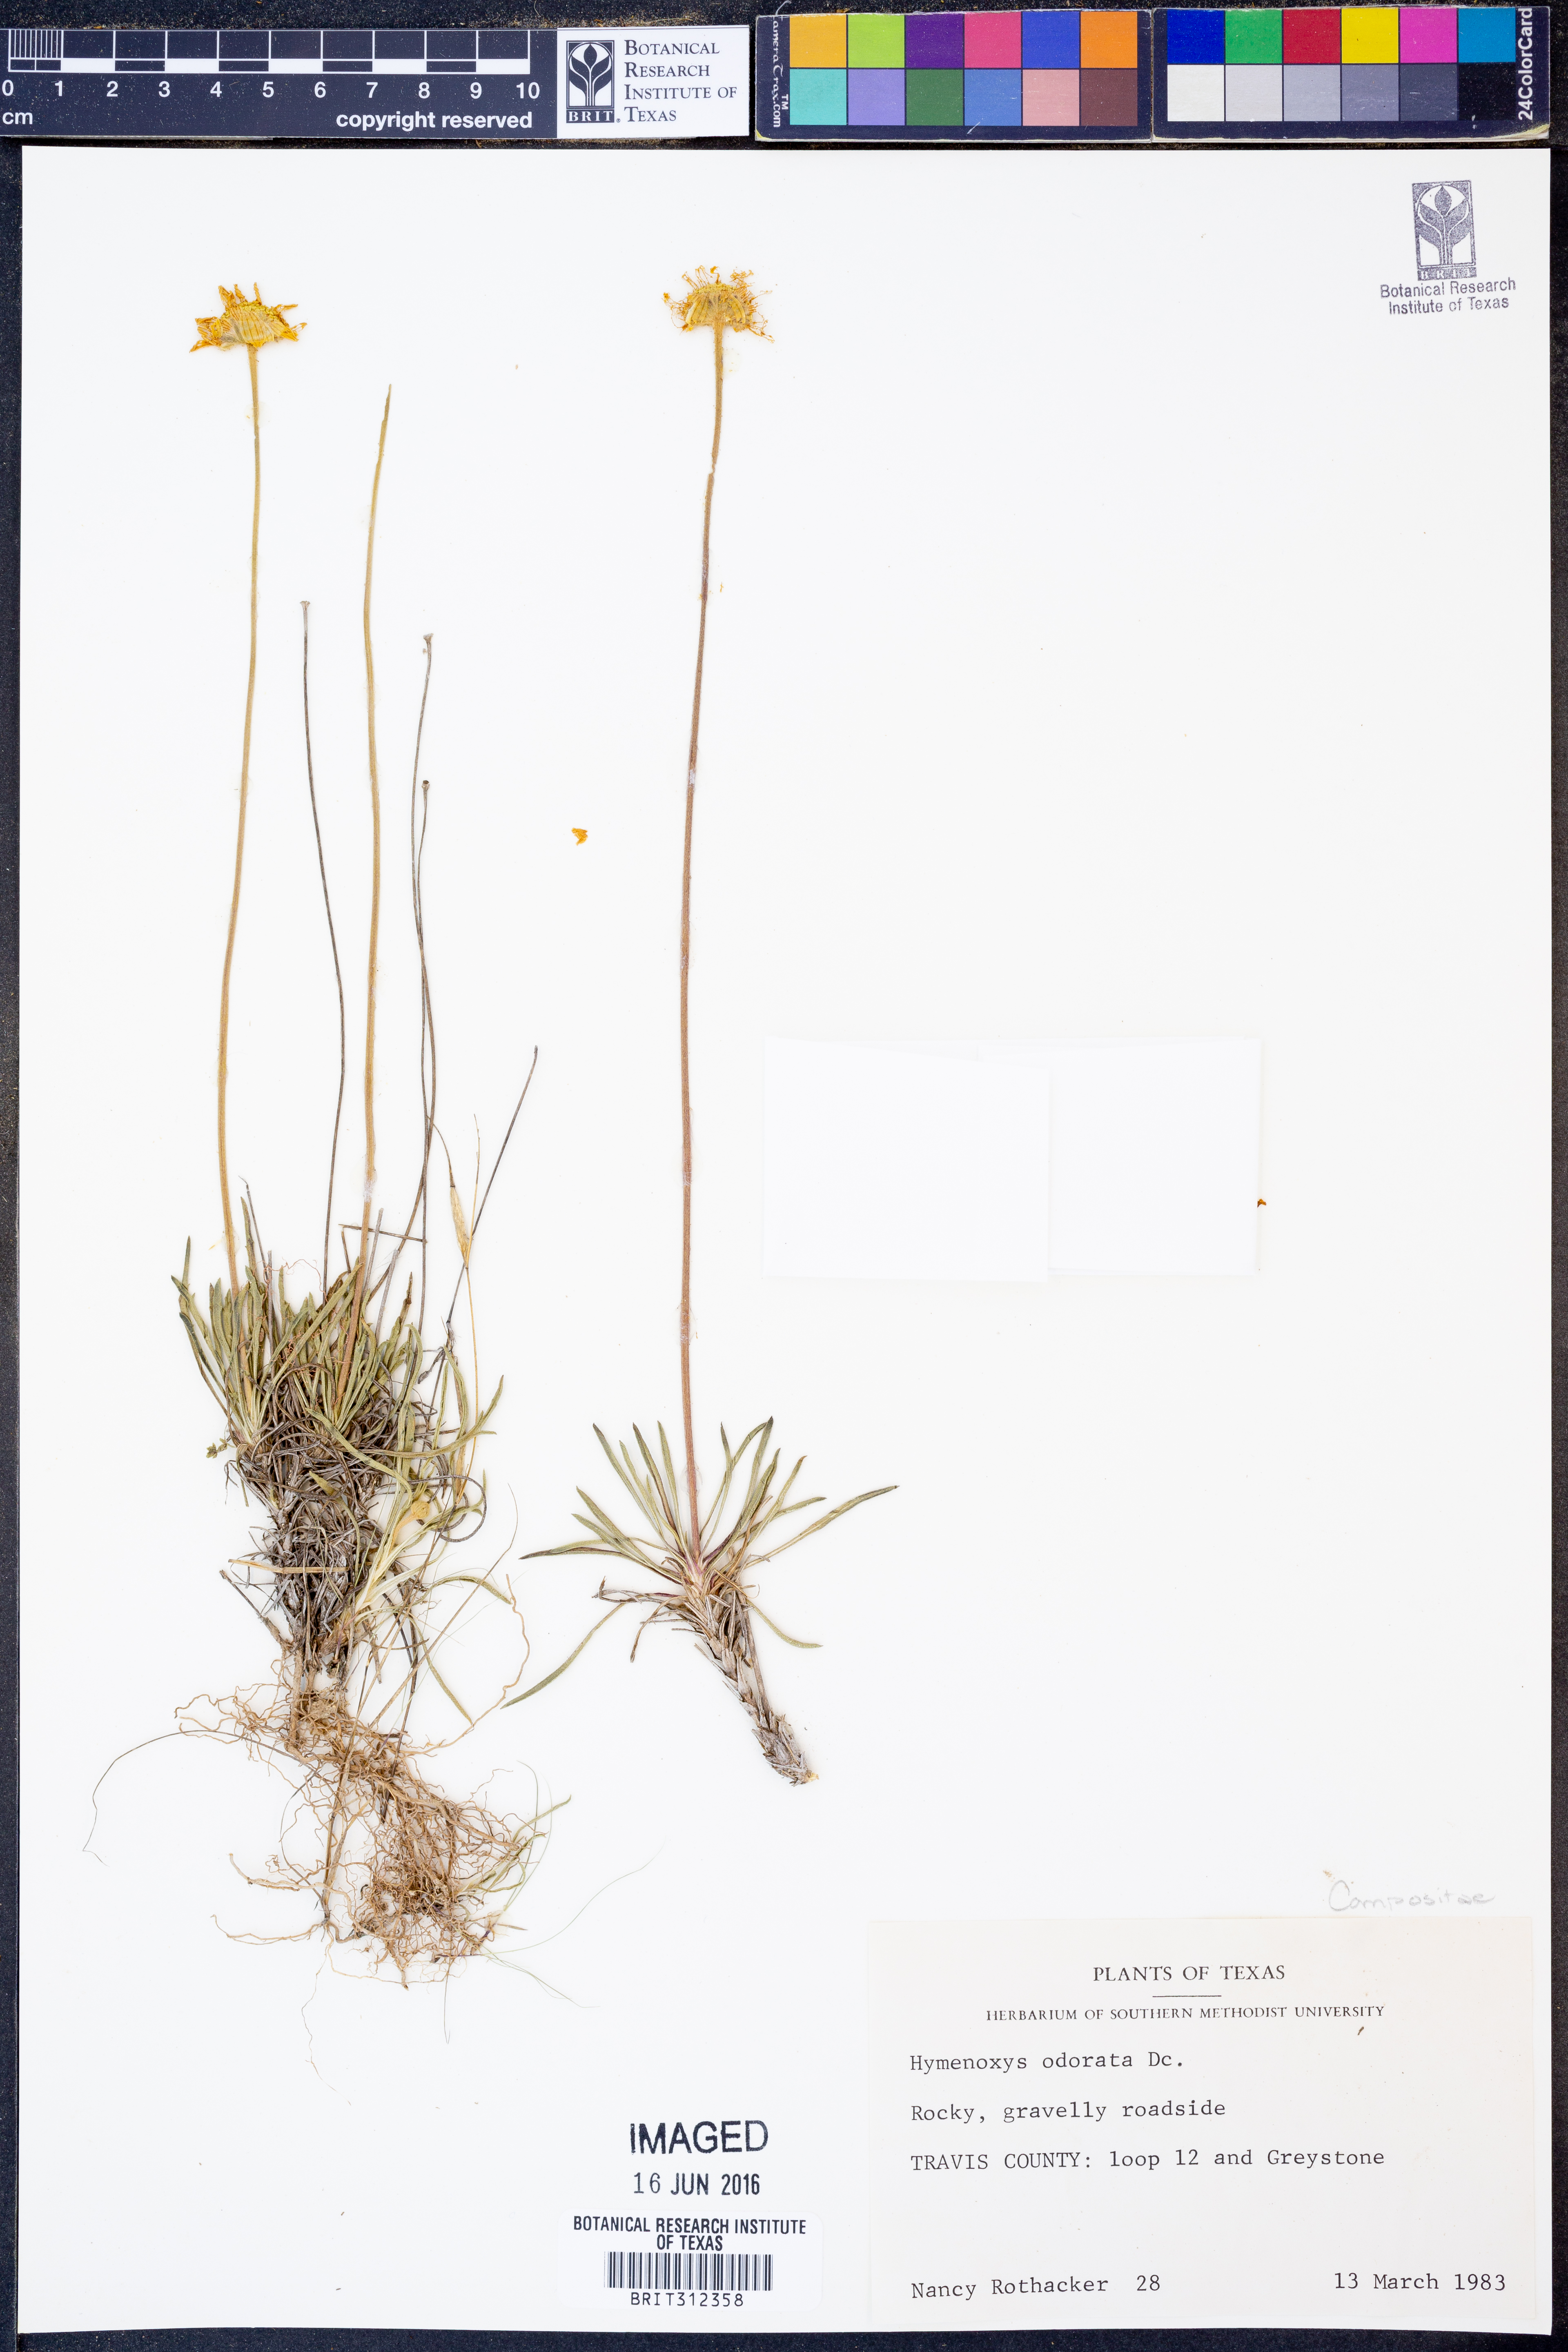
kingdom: Plantae
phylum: Tracheophyta
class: Magnoliopsida
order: Asterales
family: Asteraceae
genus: Hymenoxys
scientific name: Hymenoxys odorata
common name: Bitter rubberweed
